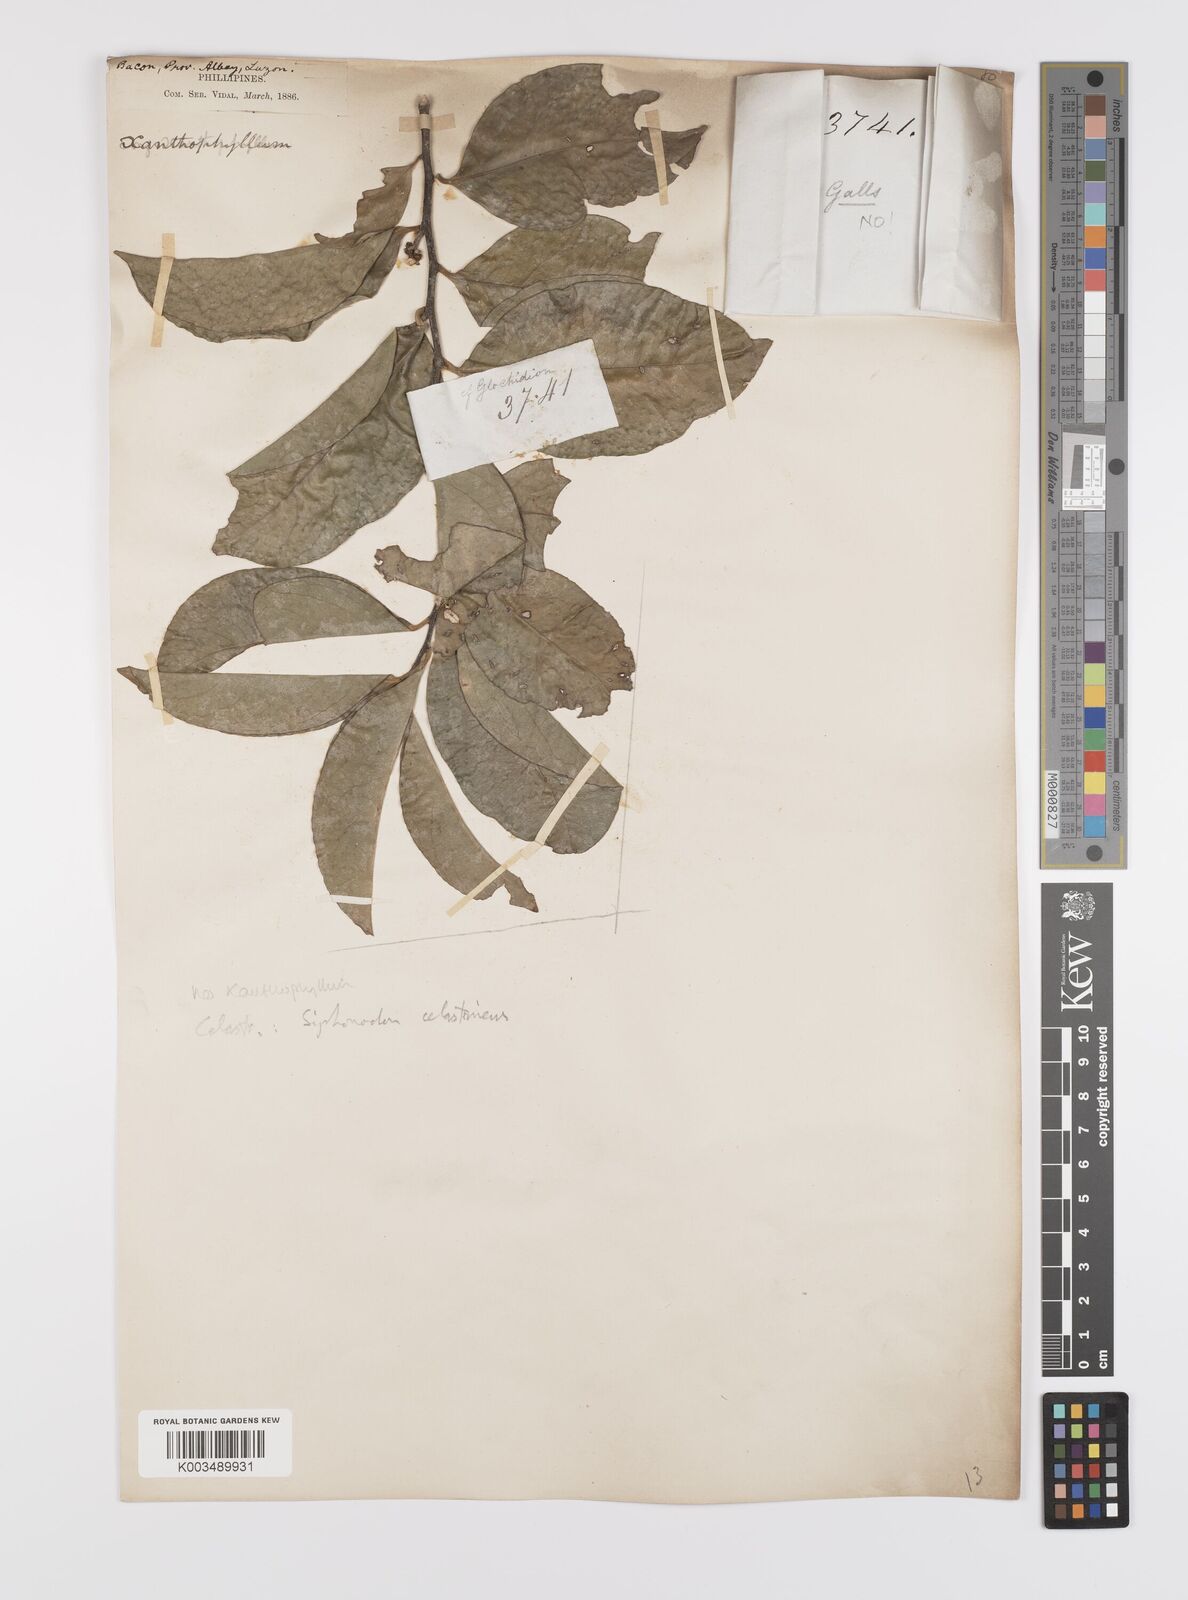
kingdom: Plantae
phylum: Tracheophyta
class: Magnoliopsida
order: Celastrales
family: Celastraceae
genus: Siphonodon
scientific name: Siphonodon celastrineus
